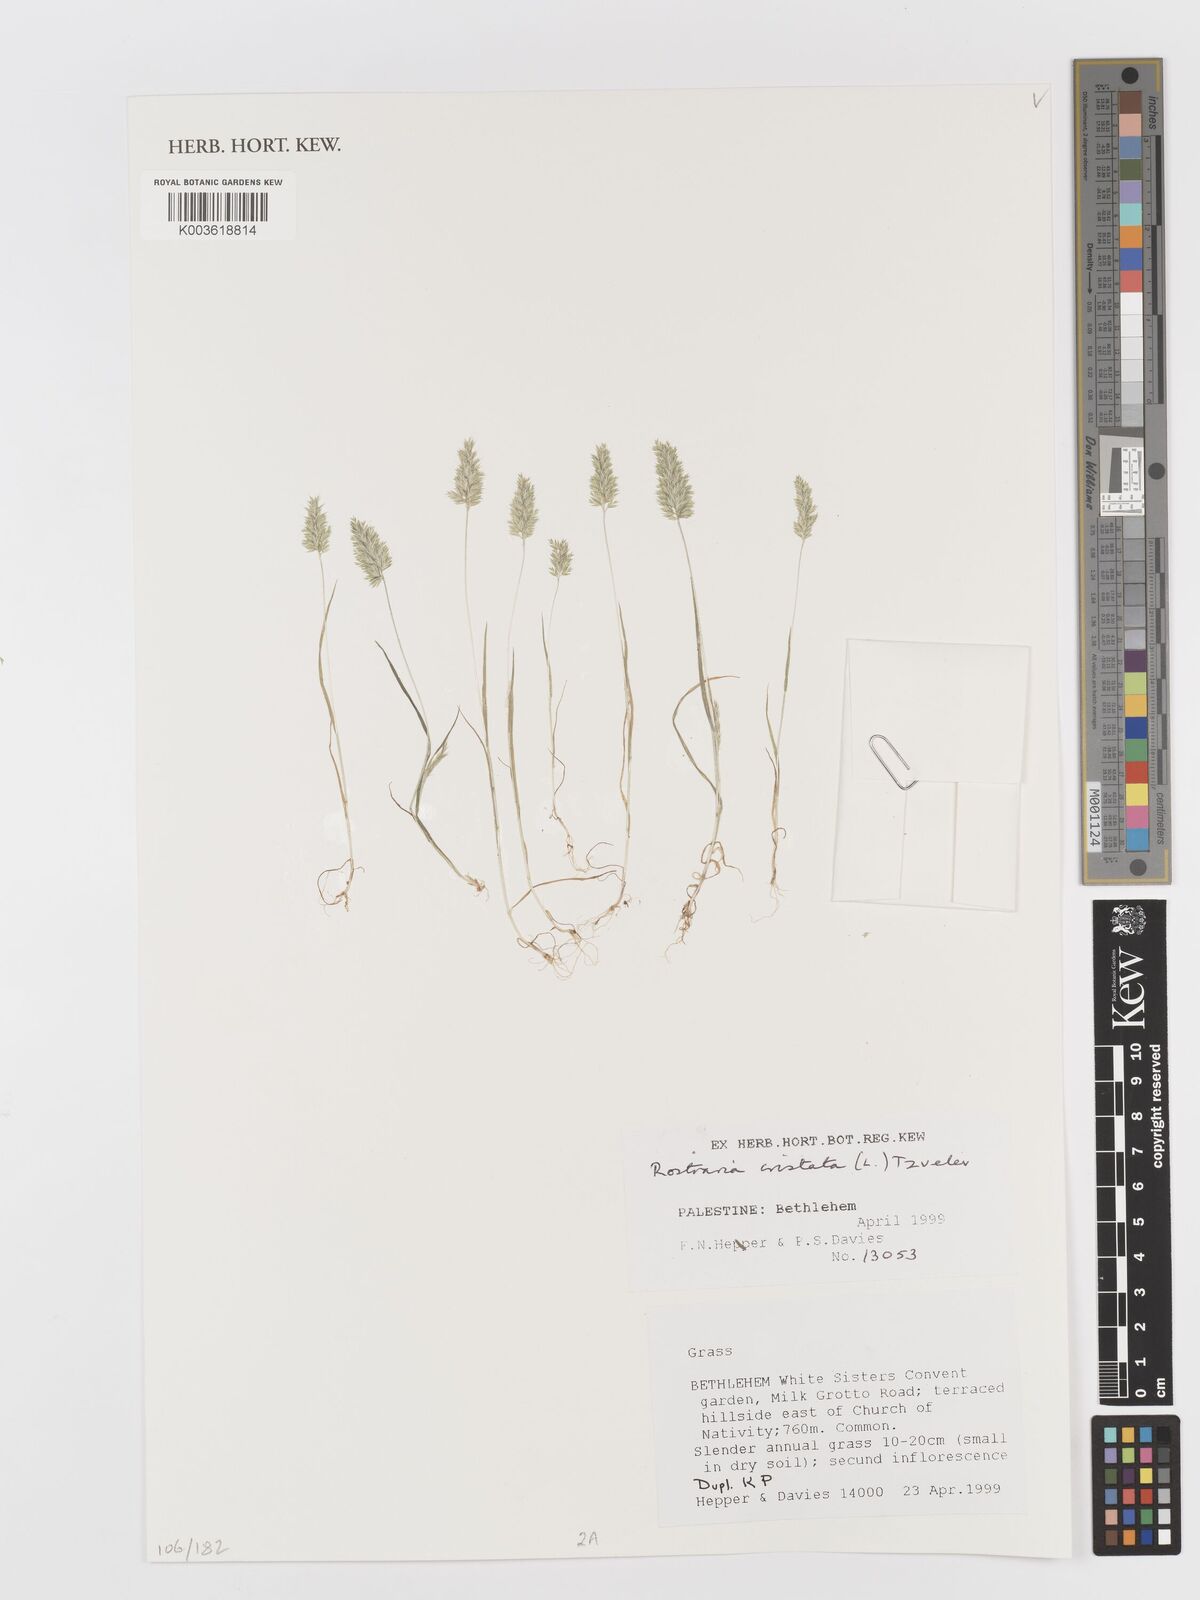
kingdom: Plantae
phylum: Tracheophyta
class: Liliopsida
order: Poales
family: Poaceae
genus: Rostraria
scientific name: Rostraria cristata
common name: Mediterranean hair-grass
